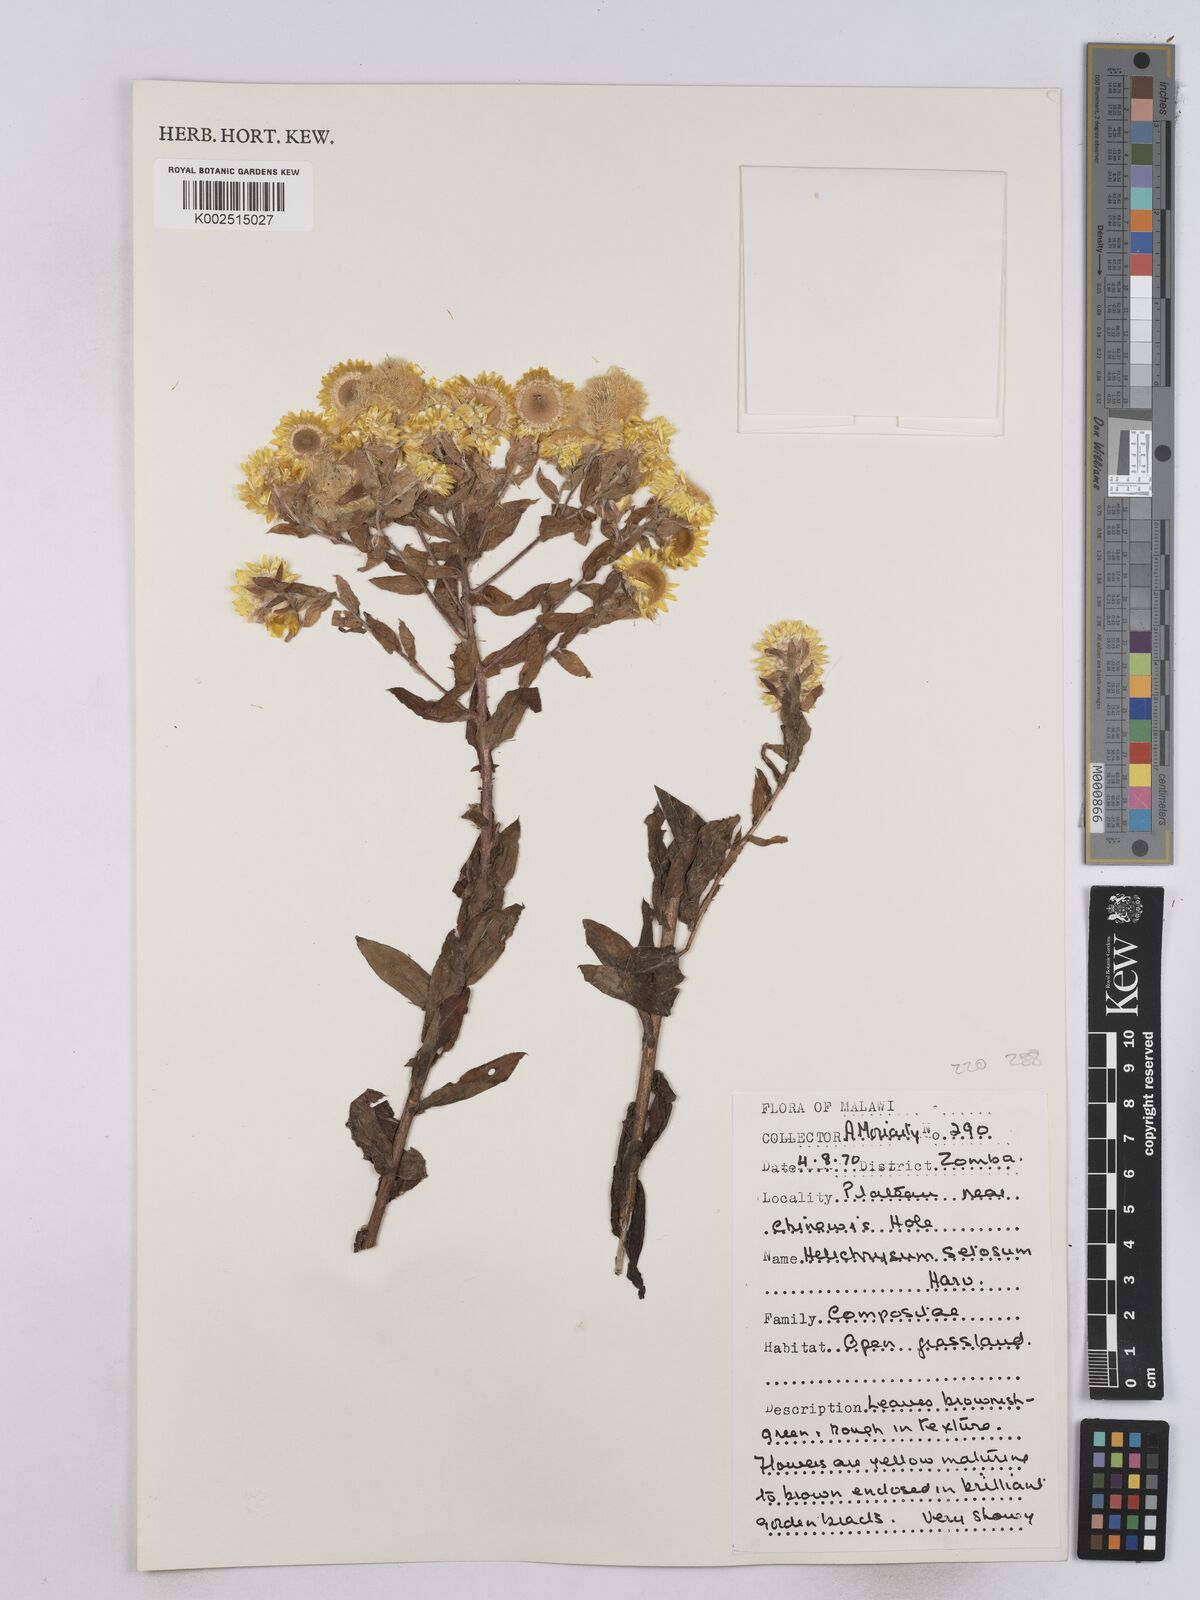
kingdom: Plantae
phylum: Tracheophyta
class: Magnoliopsida
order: Asterales
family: Asteraceae
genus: Helichrysum
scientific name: Helichrysum setosum
